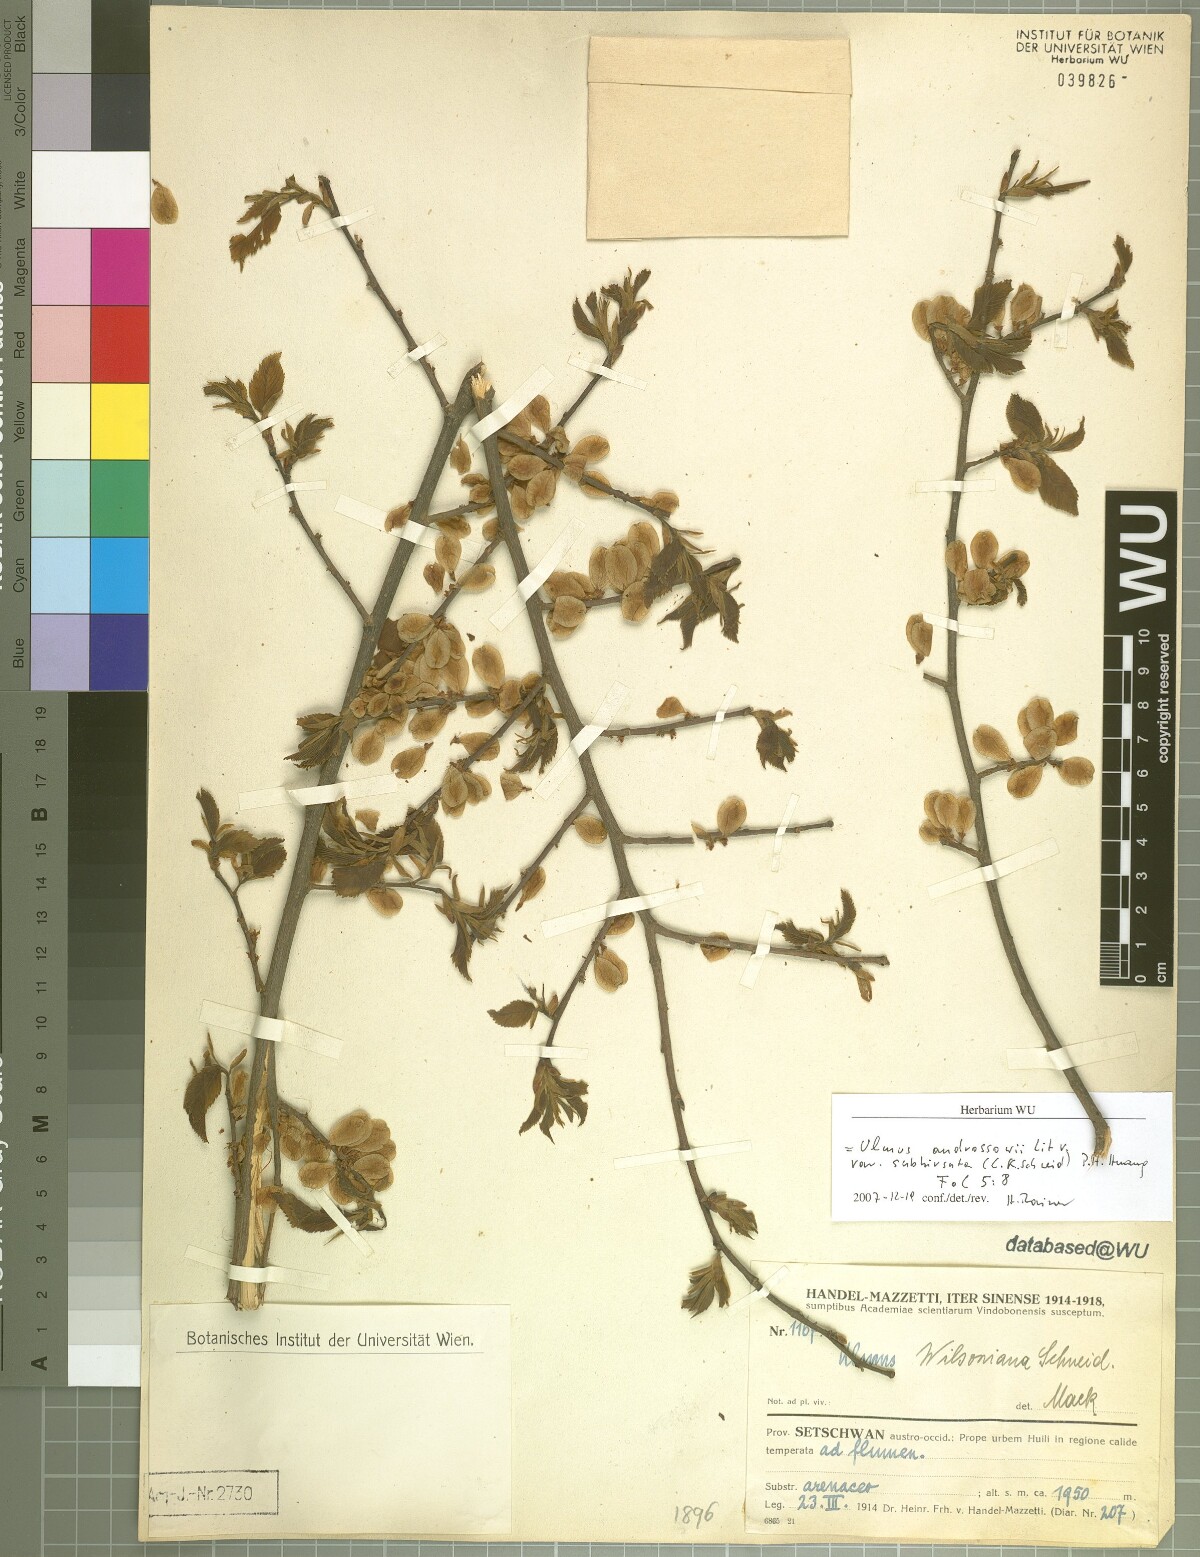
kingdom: Plantae
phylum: Tracheophyta
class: Magnoliopsida
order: Rosales
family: Ulmaceae
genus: Ulmus
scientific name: Ulmus davidiana
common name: Japanese elm
